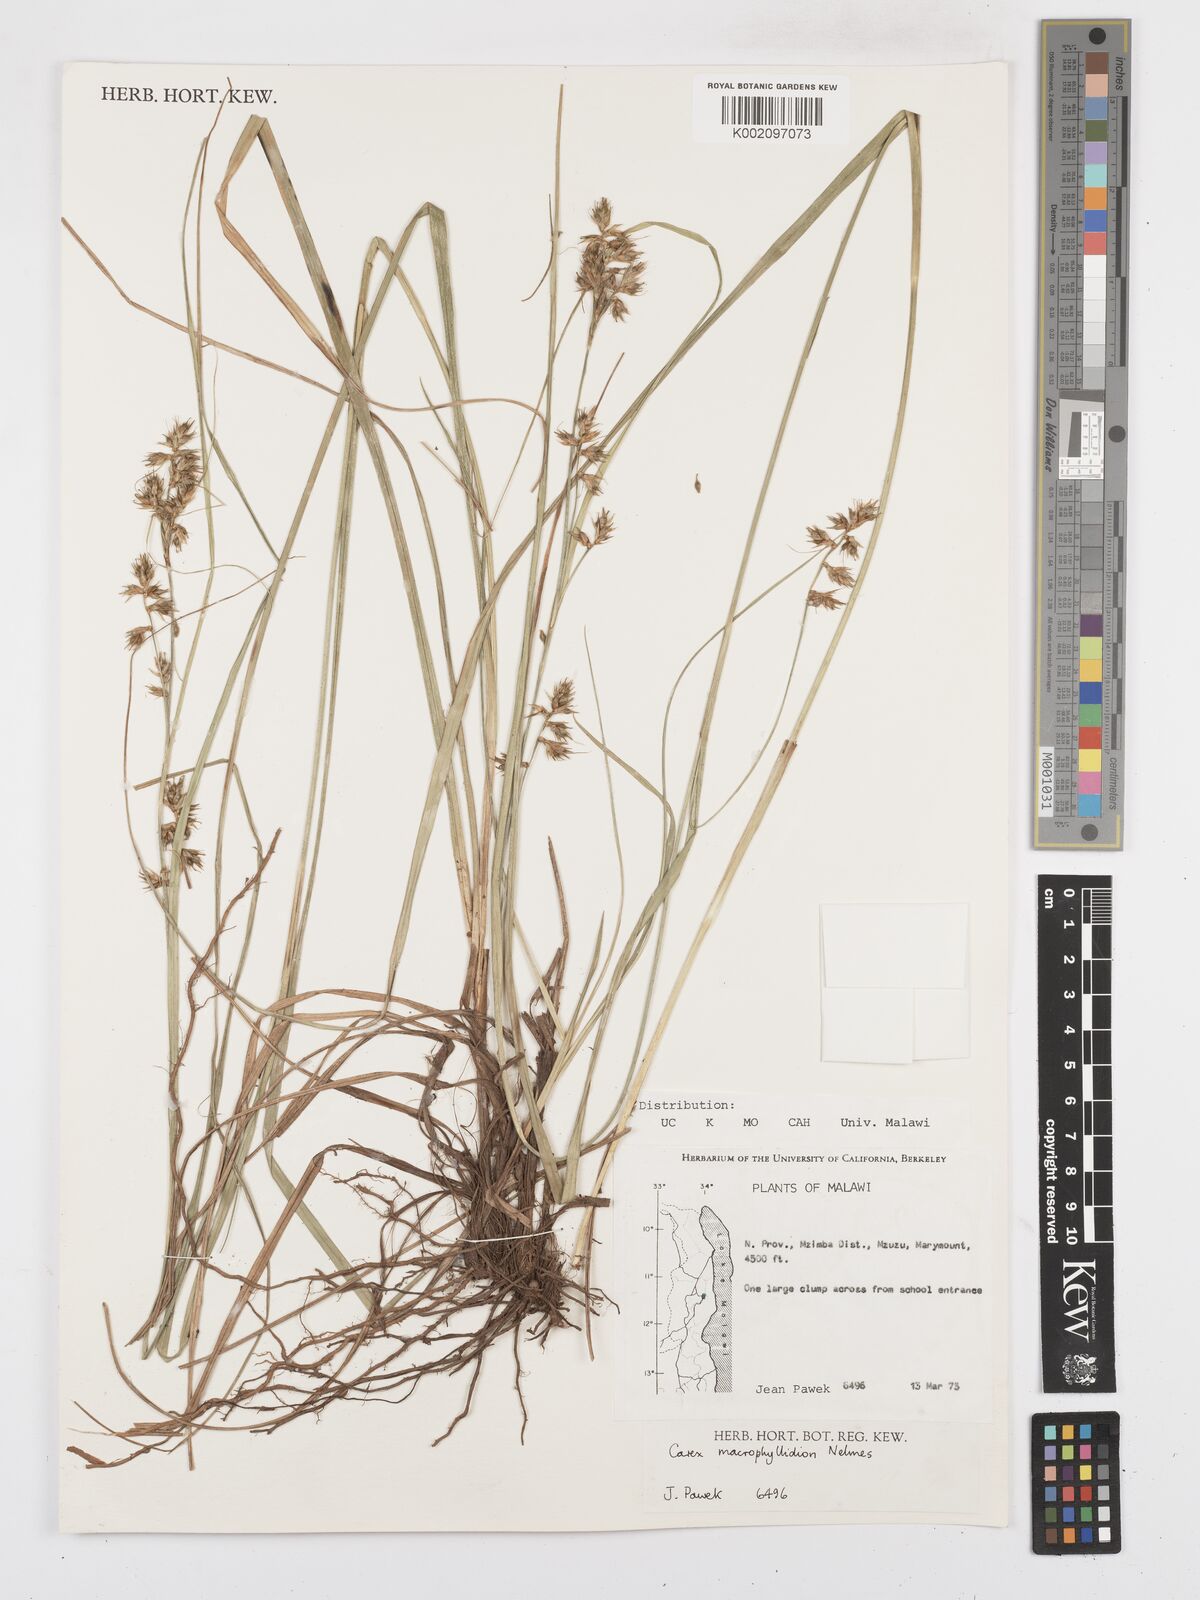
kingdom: Plantae
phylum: Tracheophyta
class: Liliopsida
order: Poales
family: Cyperaceae
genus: Carex
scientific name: Carex macrophyllidion
